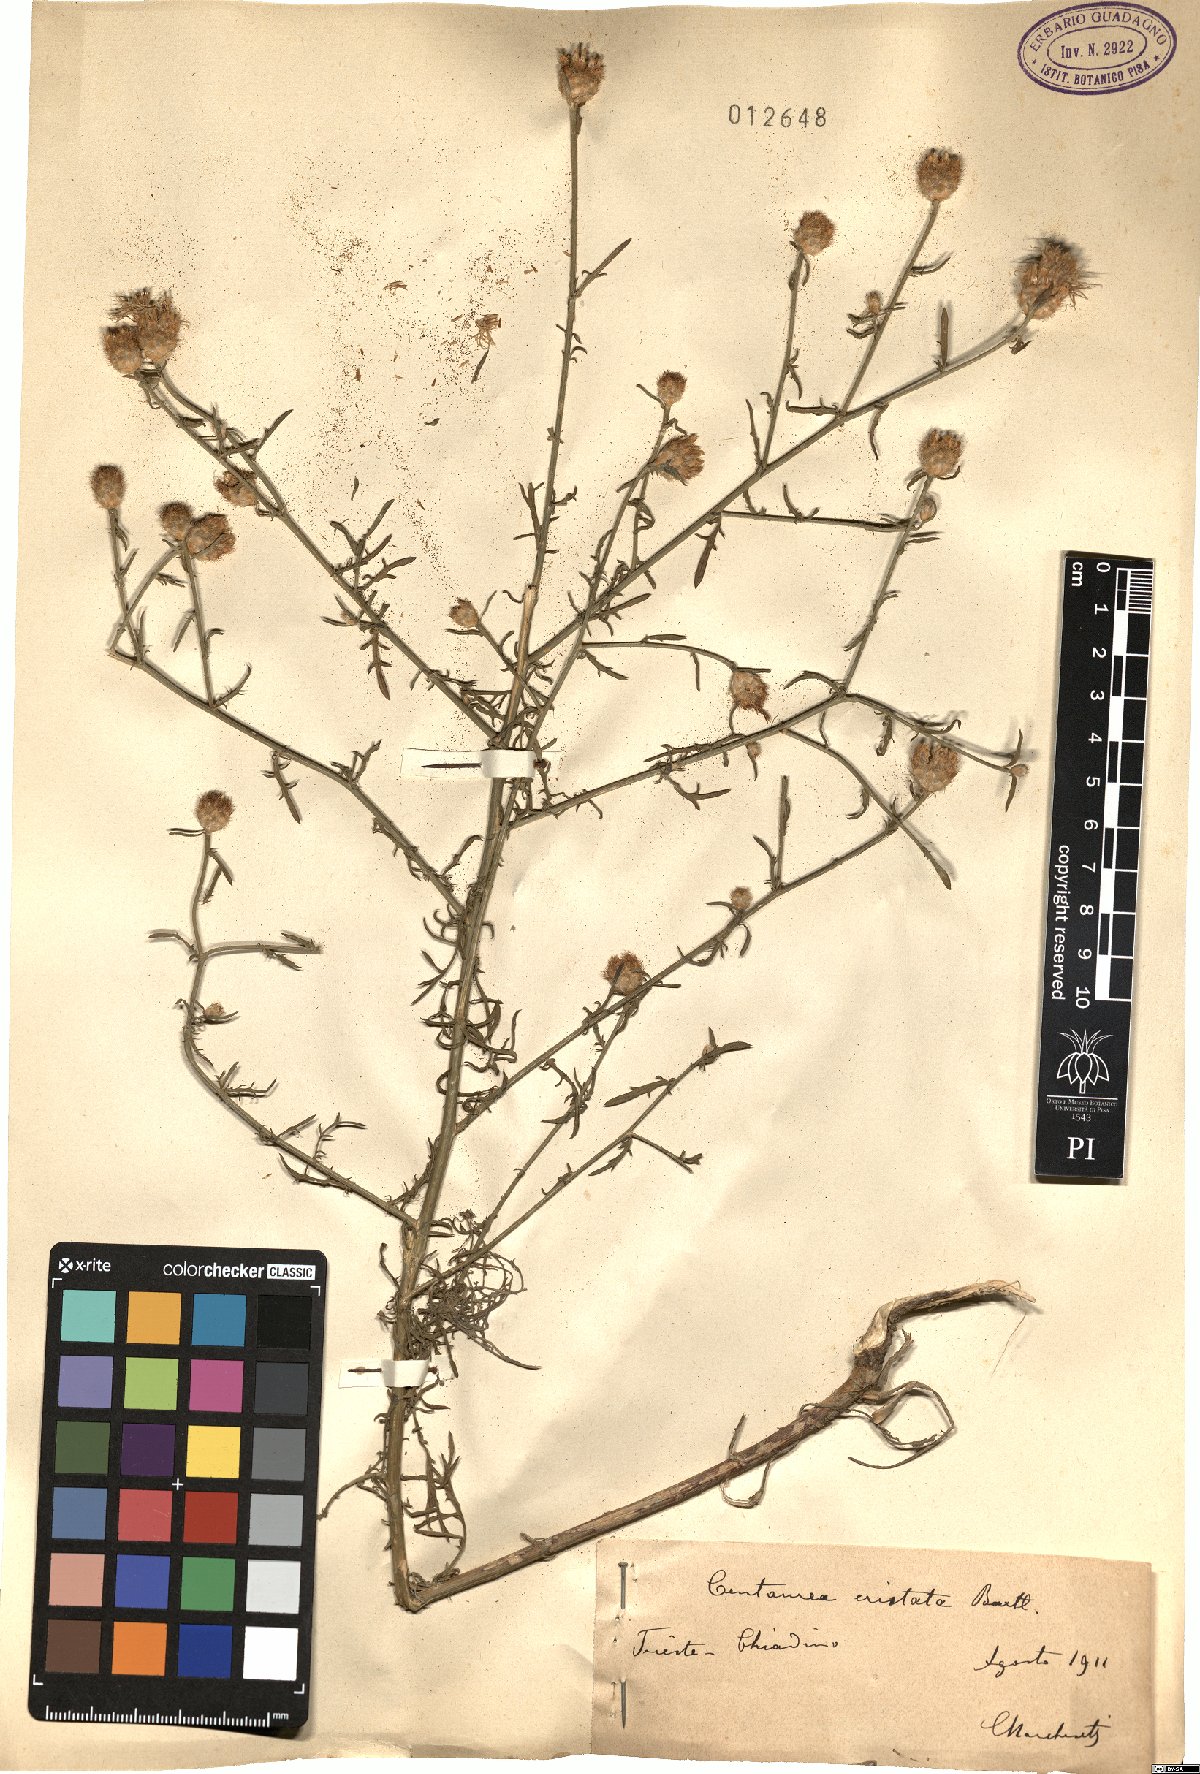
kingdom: Plantae
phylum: Tracheophyta
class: Magnoliopsida
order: Asterales
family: Asteraceae
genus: Centaurea
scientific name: Centaurea cristata
